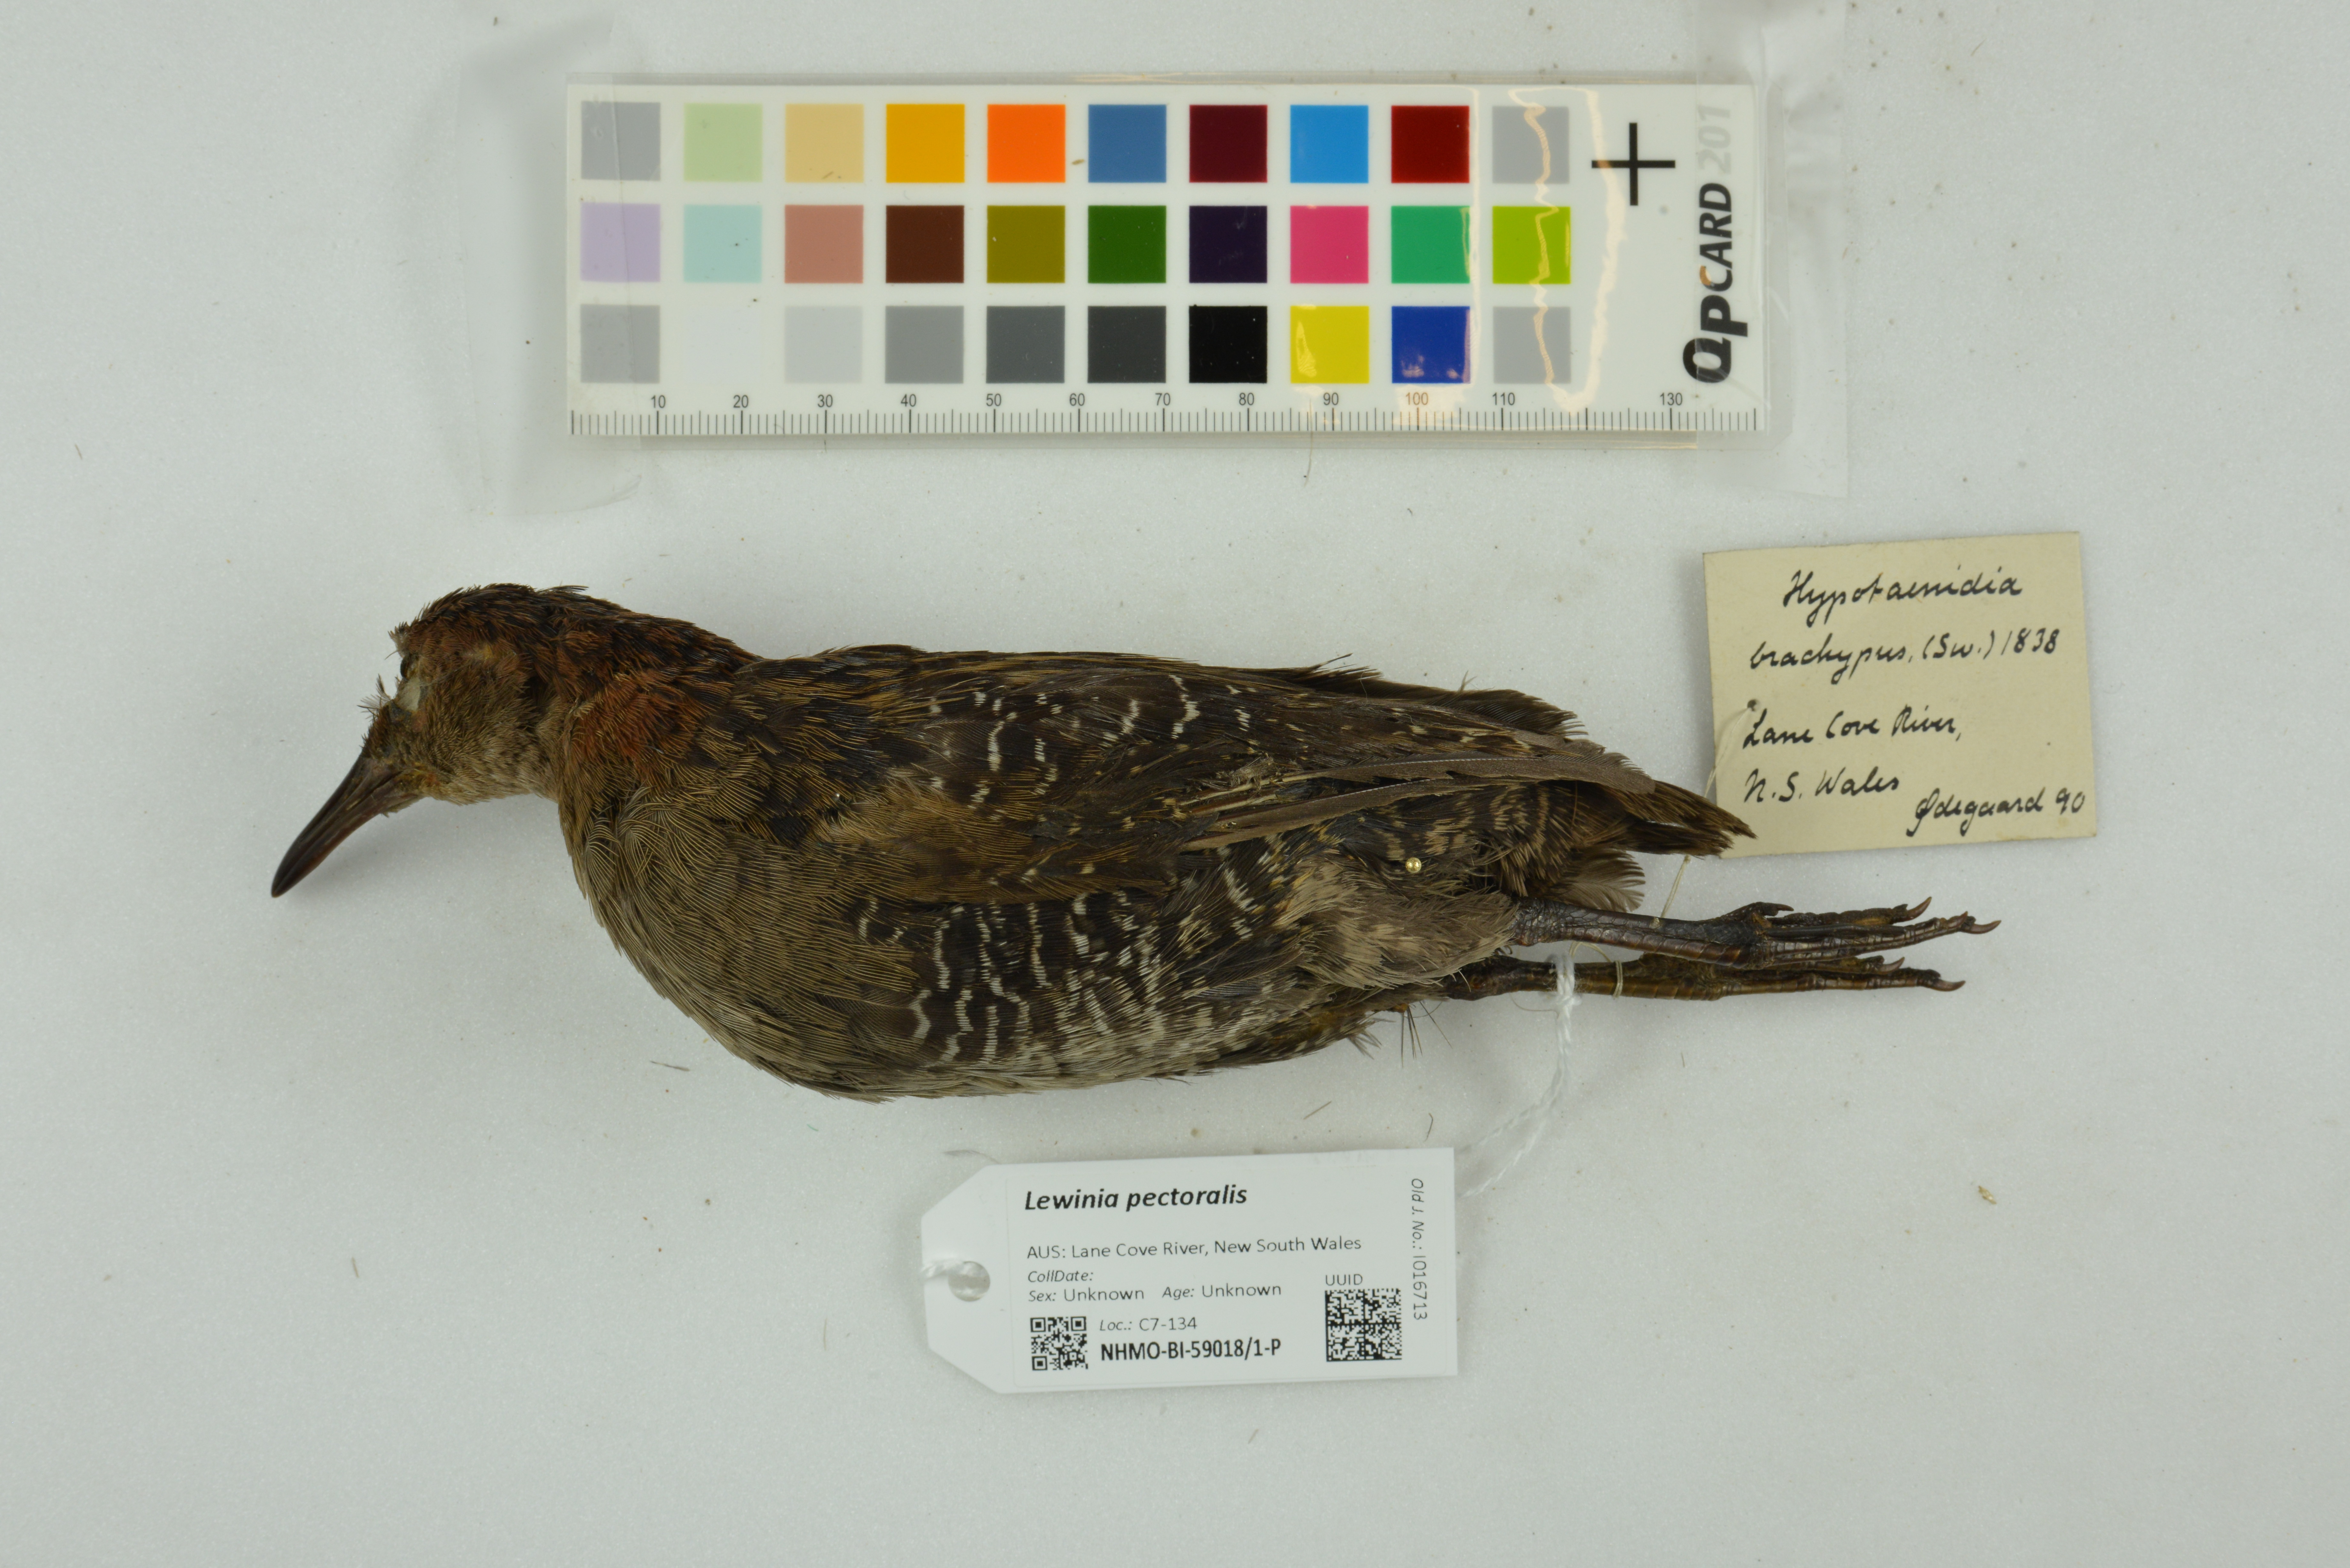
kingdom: Animalia
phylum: Chordata
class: Aves
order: Gruiformes
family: Rallidae
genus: Lewinia
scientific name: Lewinia pectoralis
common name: Lewin's rail
